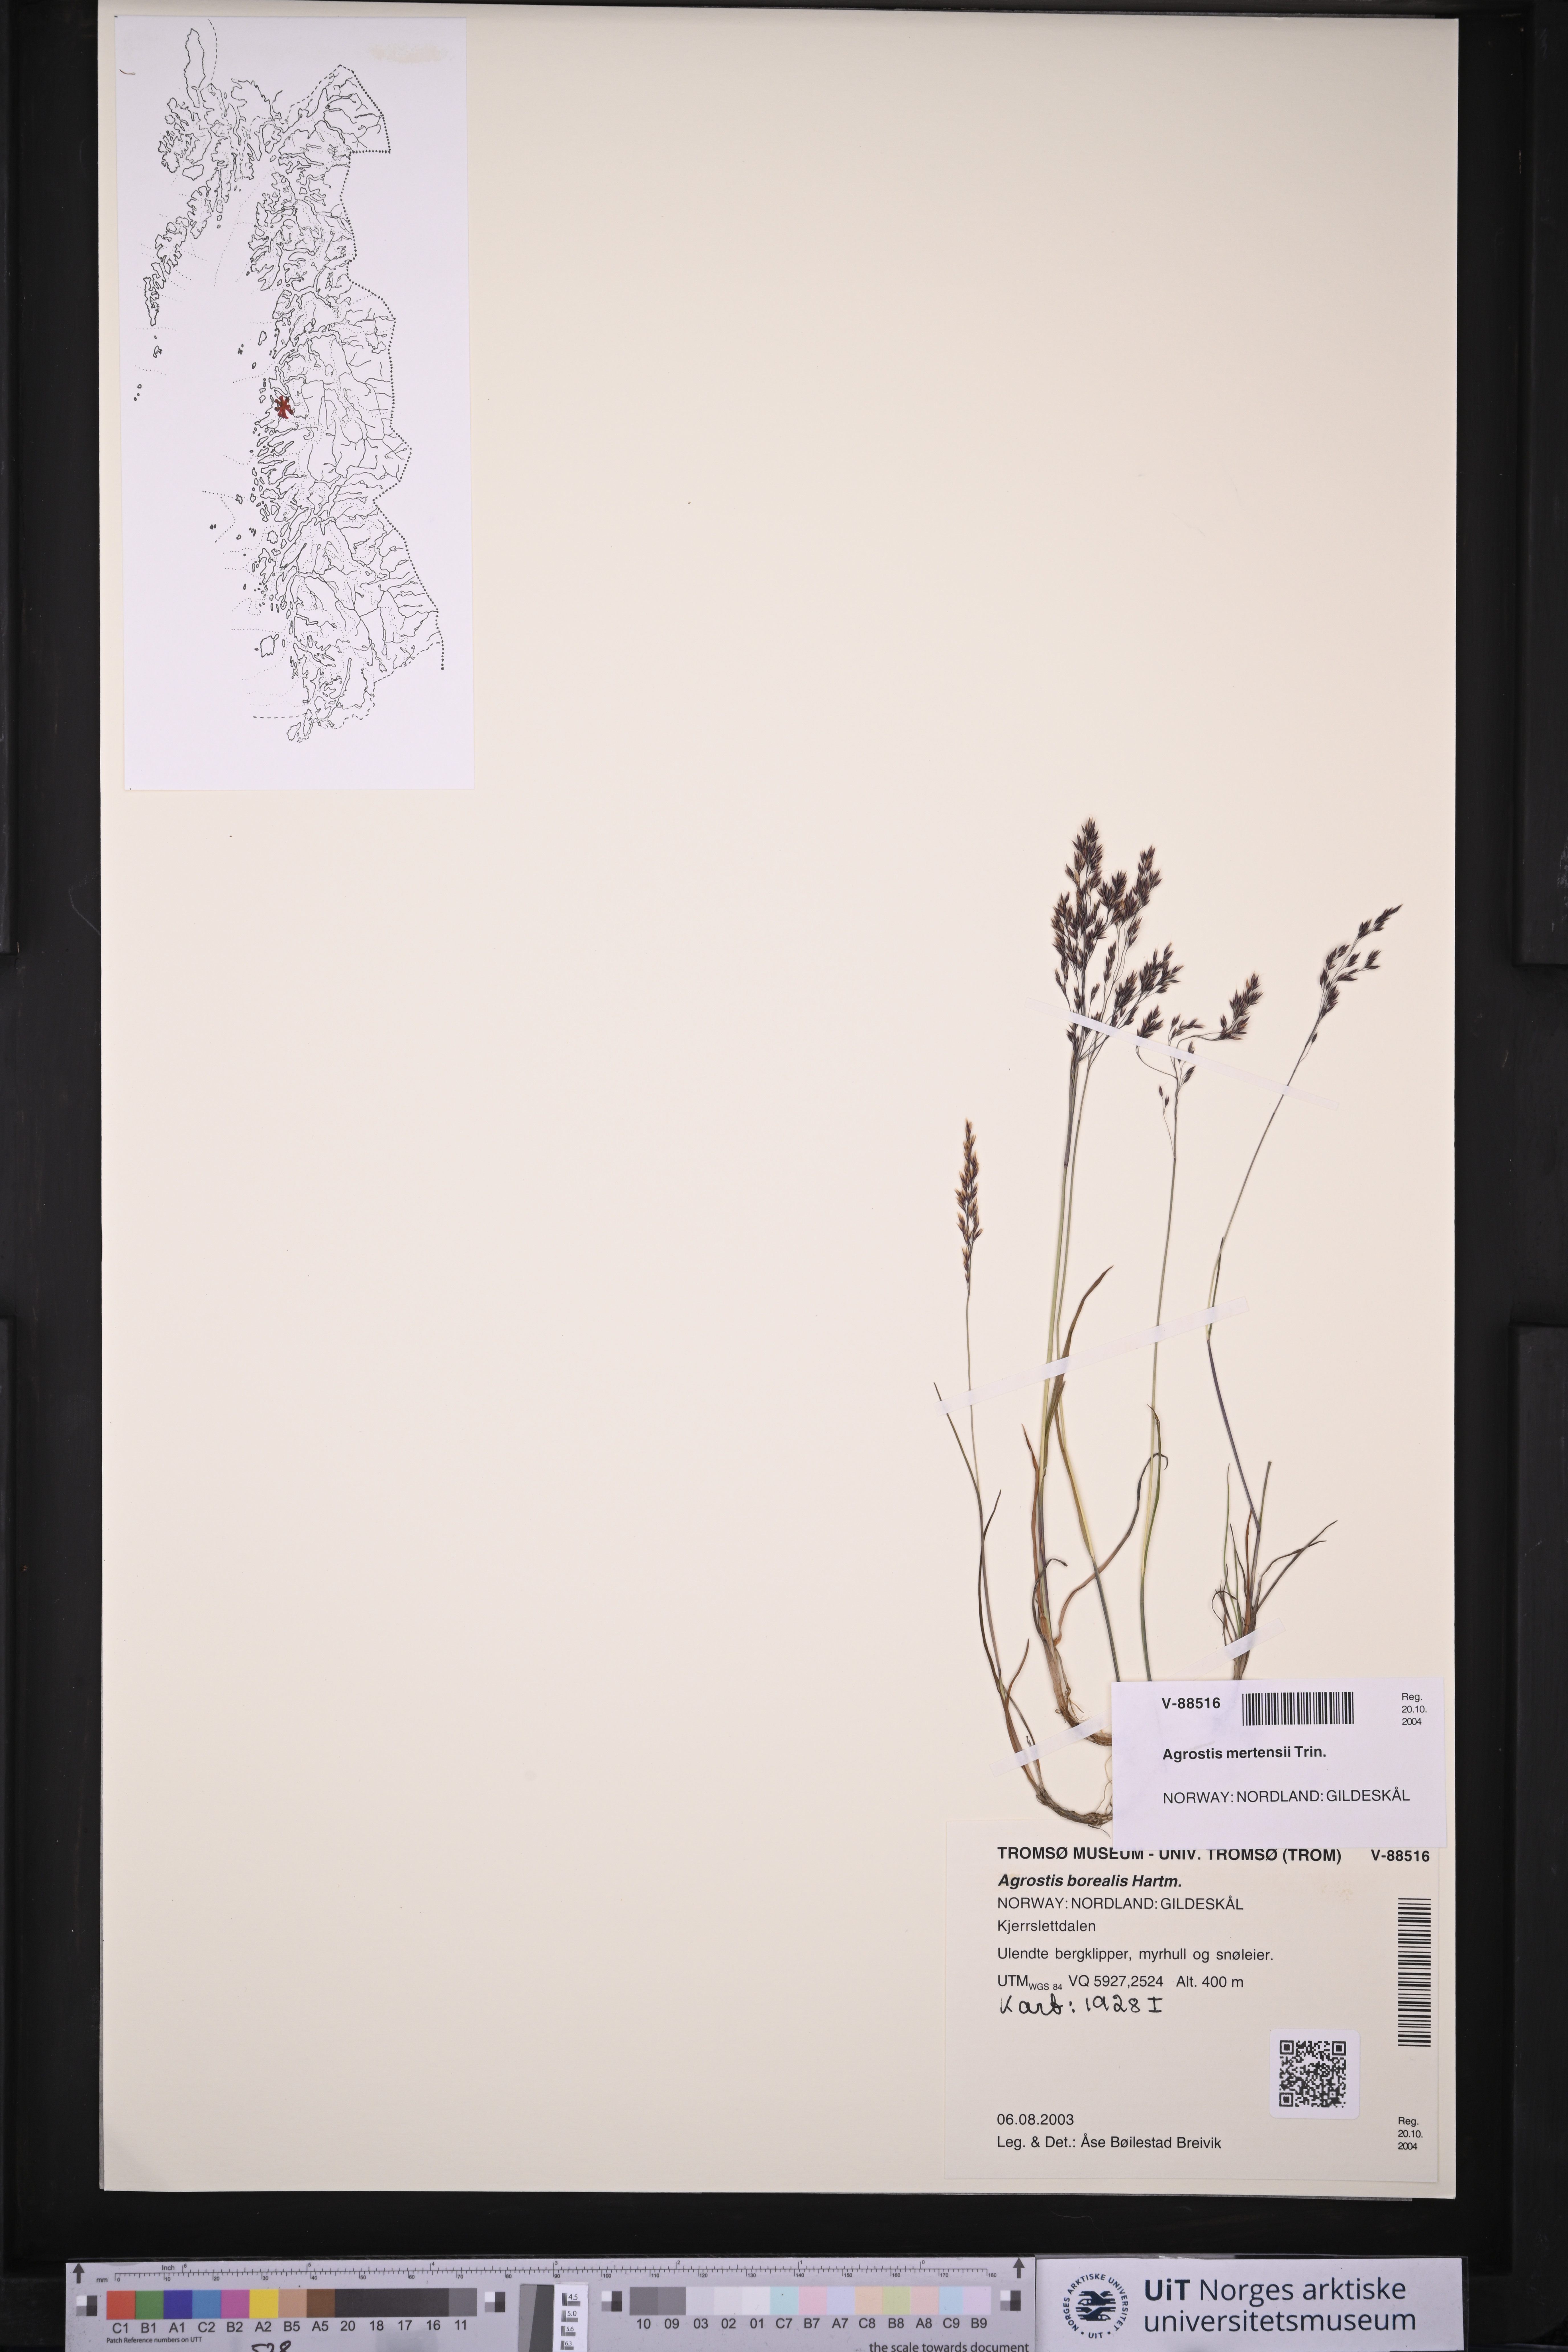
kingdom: Plantae
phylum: Tracheophyta
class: Liliopsida
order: Poales
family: Poaceae
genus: Agrostis
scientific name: Agrostis mertensii
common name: Northern bent
